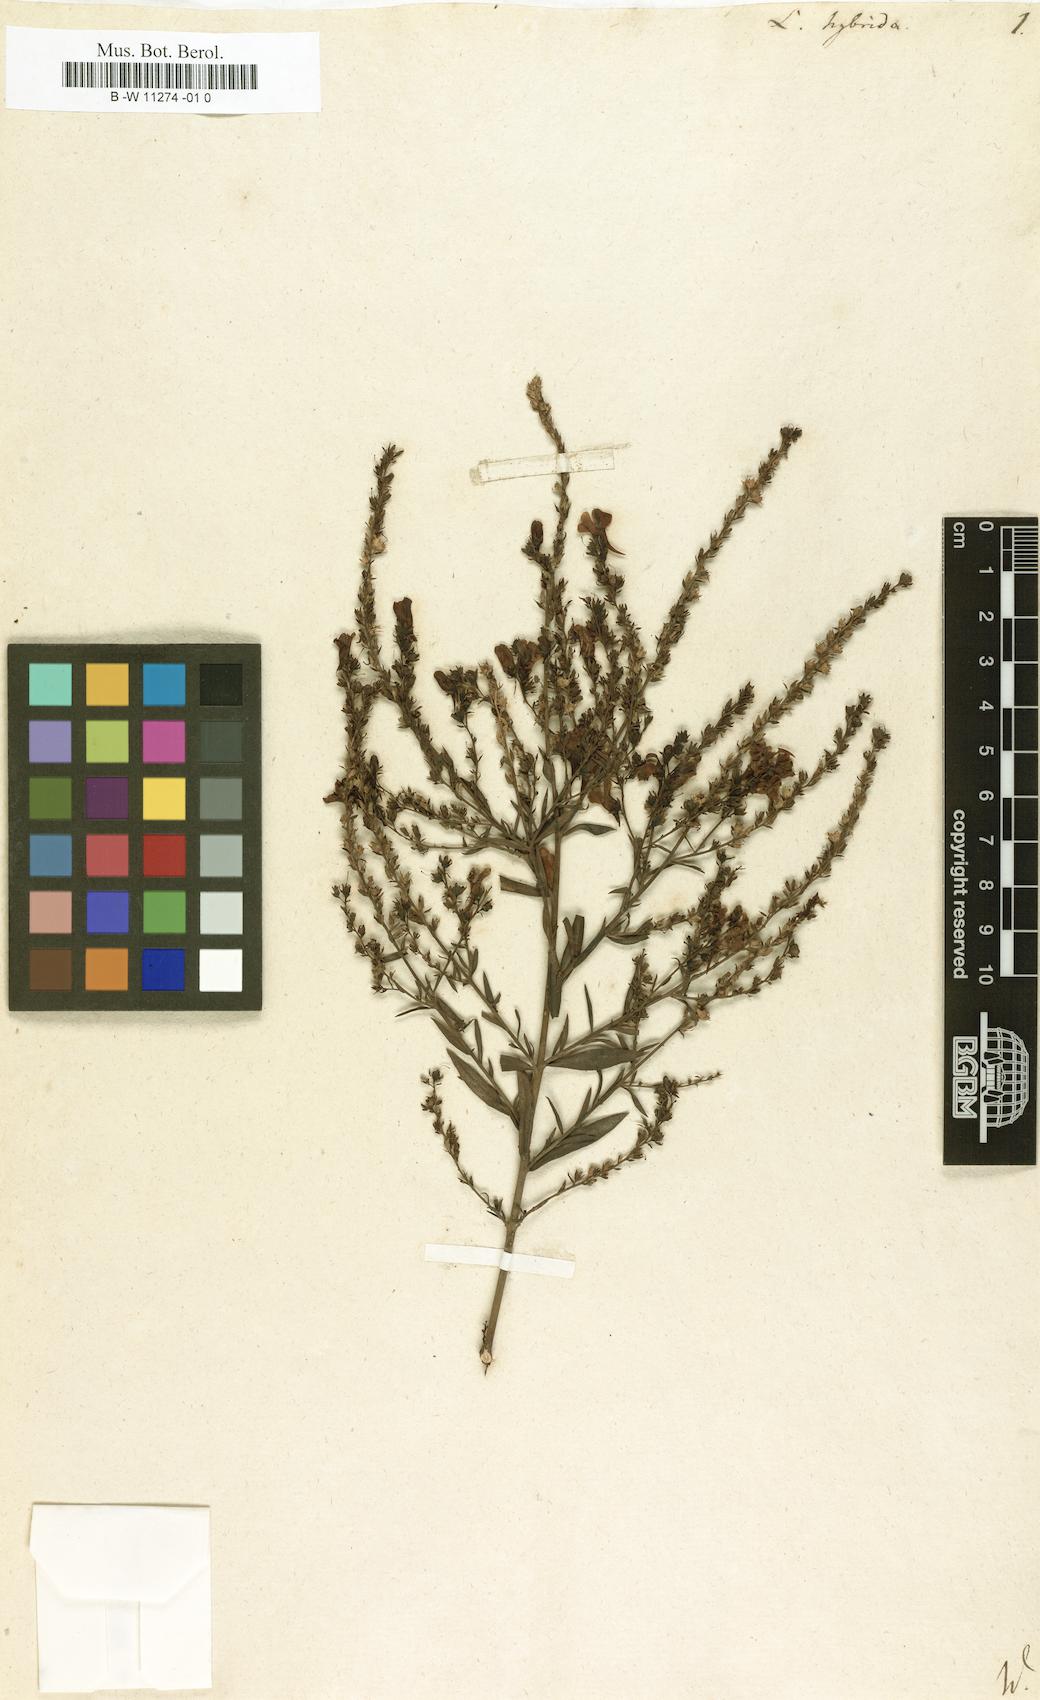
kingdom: Plantae
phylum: Tracheophyta
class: Magnoliopsida
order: Lamiales
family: Plantaginaceae
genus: Linaria
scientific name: Linaria hybrida
